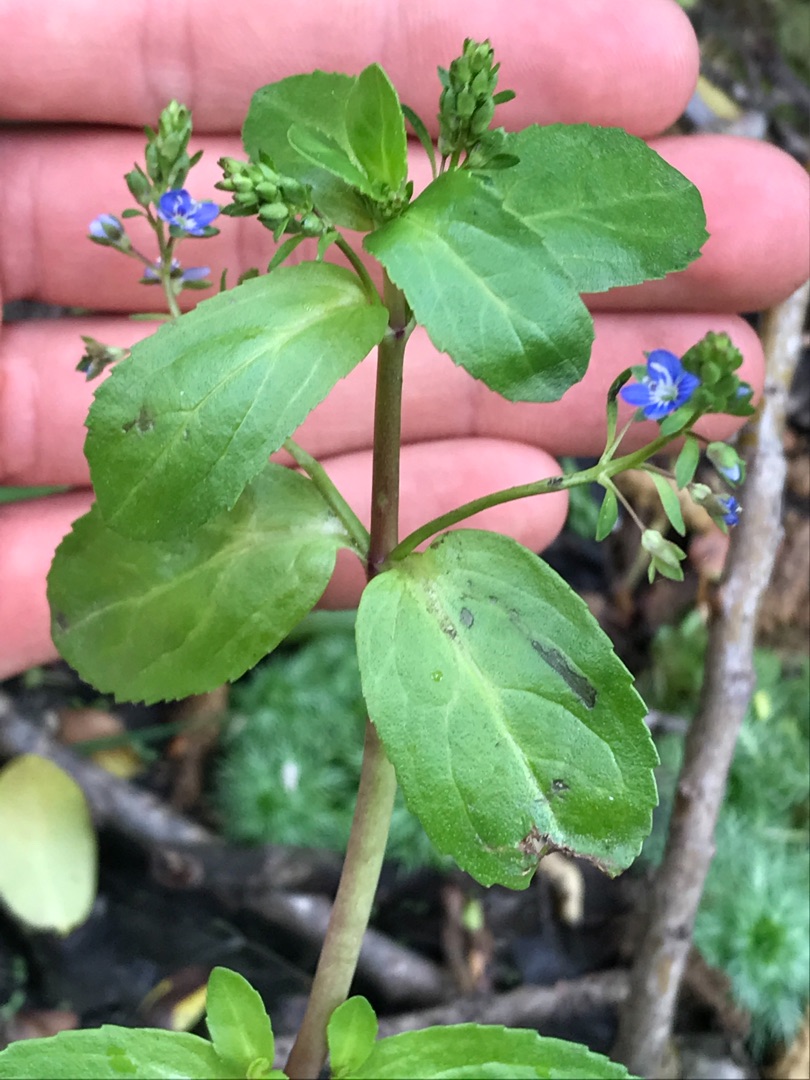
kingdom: Plantae
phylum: Tracheophyta
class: Magnoliopsida
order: Lamiales
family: Plantaginaceae
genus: Veronica
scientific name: Veronica beccabunga
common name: Tykbladet ærenpris
